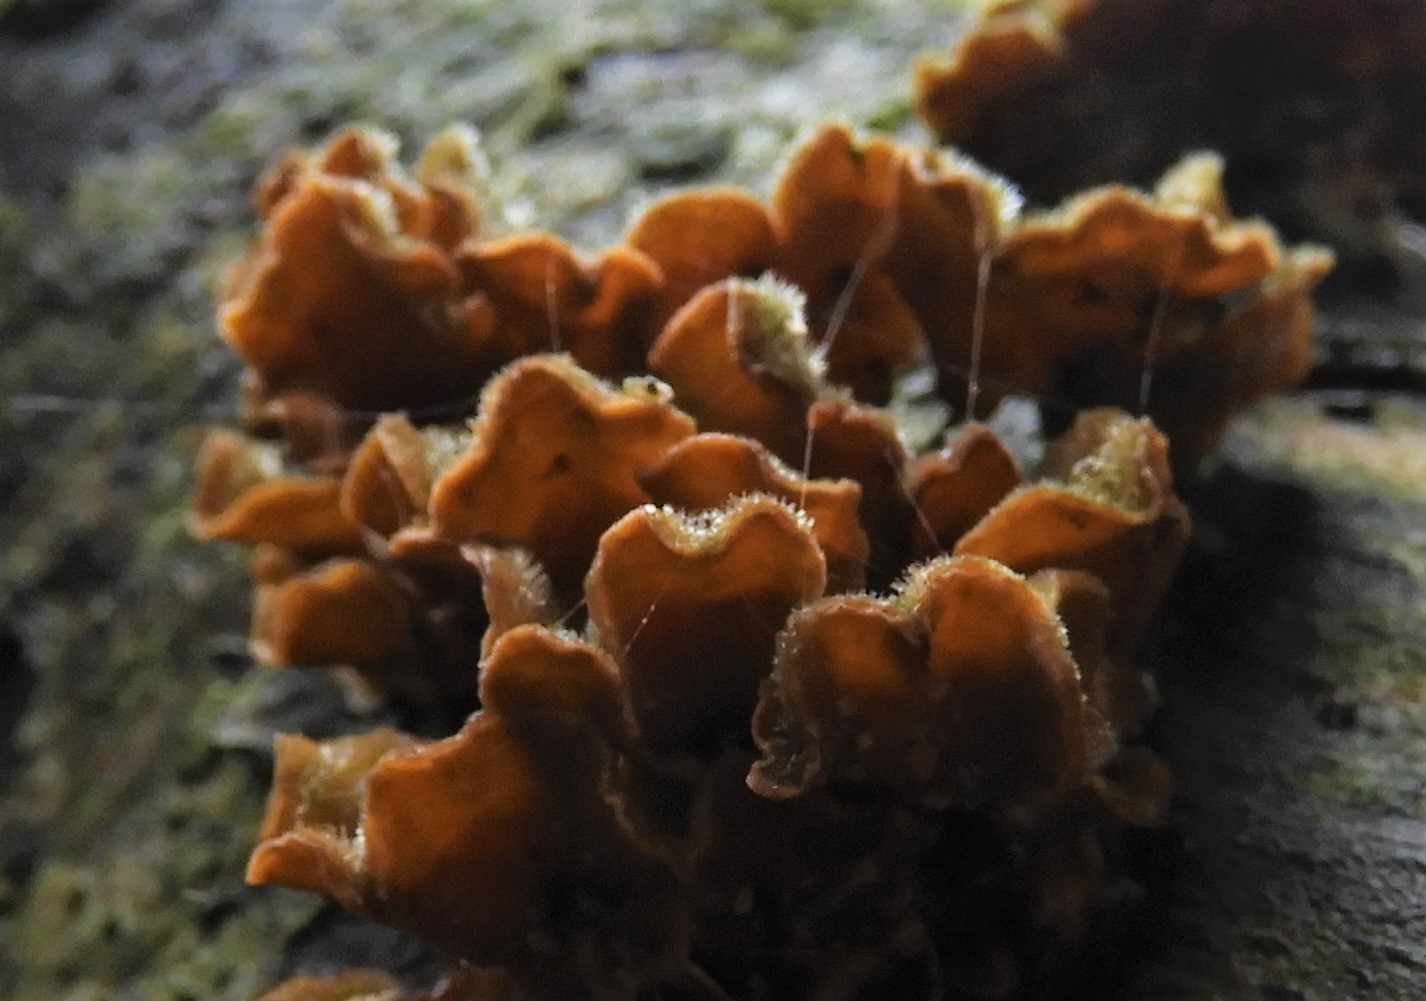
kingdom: Fungi
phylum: Basidiomycota
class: Agaricomycetes
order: Russulales
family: Stereaceae
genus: Stereum
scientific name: Stereum hirsutum
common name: håret lædersvamp
